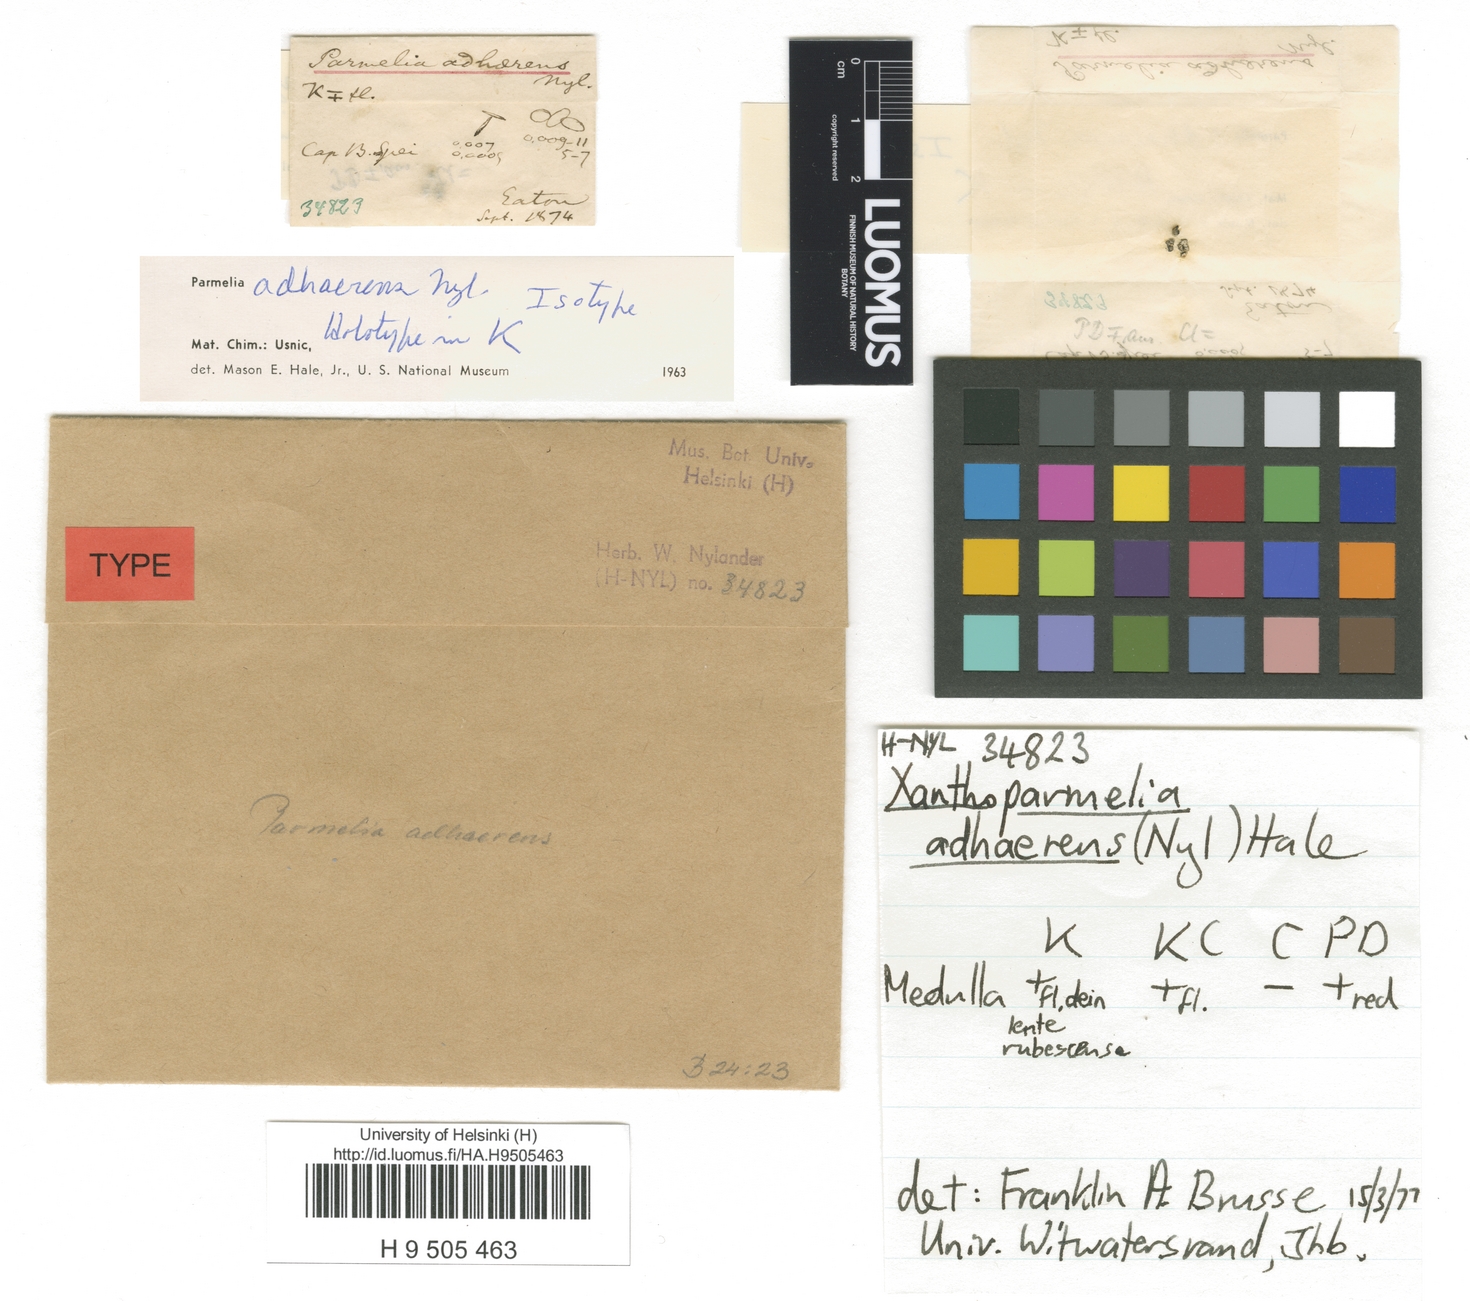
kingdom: Fungi
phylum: Ascomycota
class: Lecanoromycetes
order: Lecanorales
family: Parmeliaceae
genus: Xanthoparmelia
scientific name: Xanthoparmelia xanthomelana
